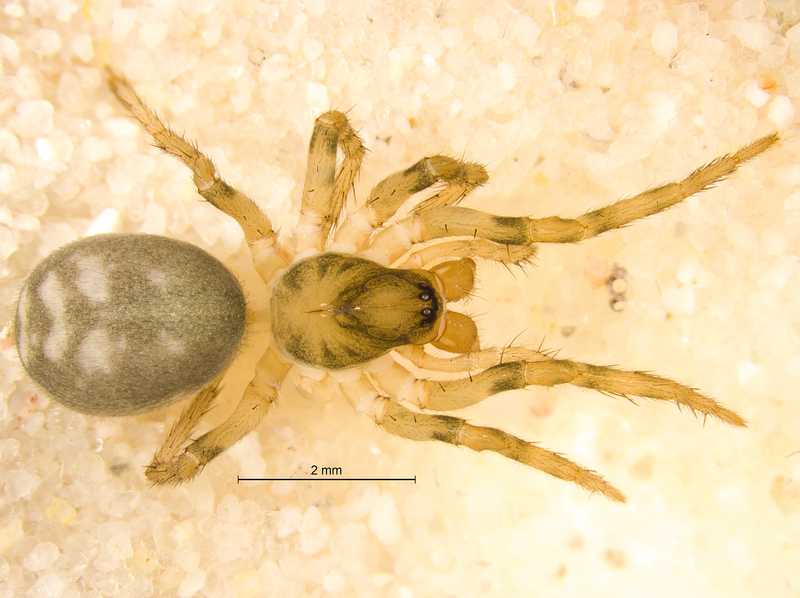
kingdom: Animalia
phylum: Arthropoda
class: Arachnida
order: Araneae
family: Cybaeidae
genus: Cybaeus
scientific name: Cybaeus tetricus
